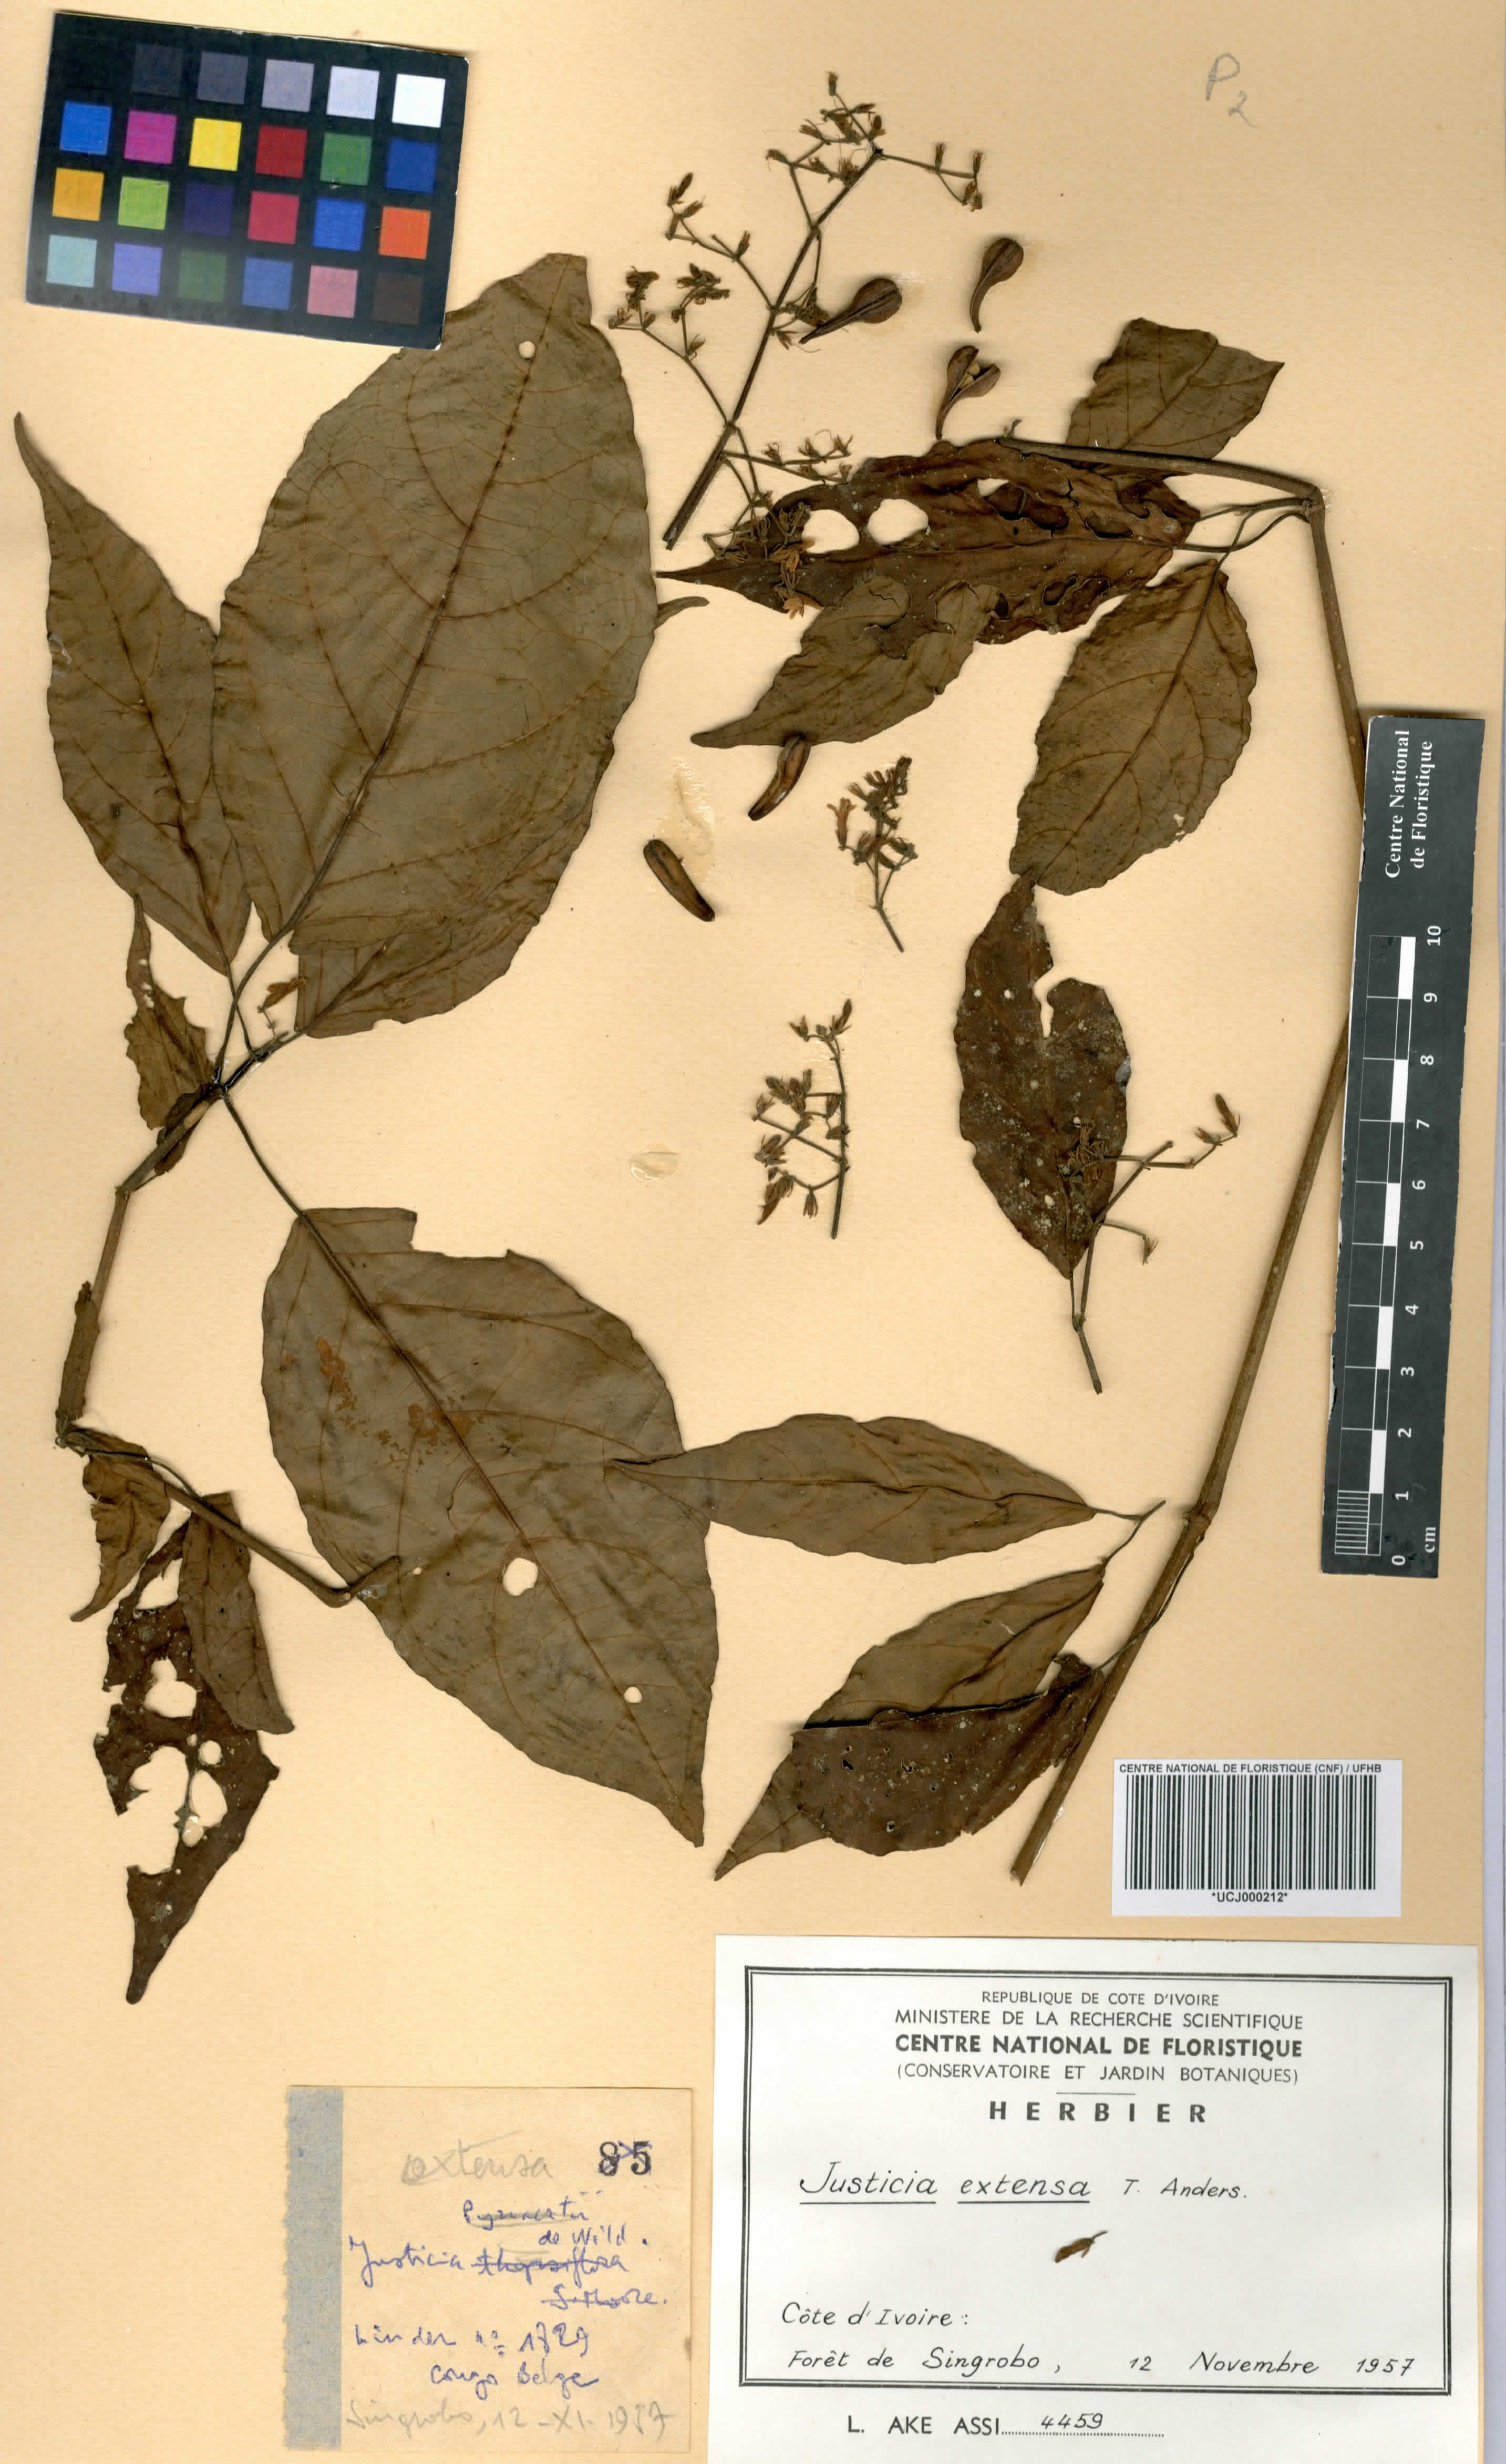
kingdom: Plantae
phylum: Tracheophyta
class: Magnoliopsida
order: Lamiales
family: Acanthaceae
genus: Justicia
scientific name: Justicia extensa
